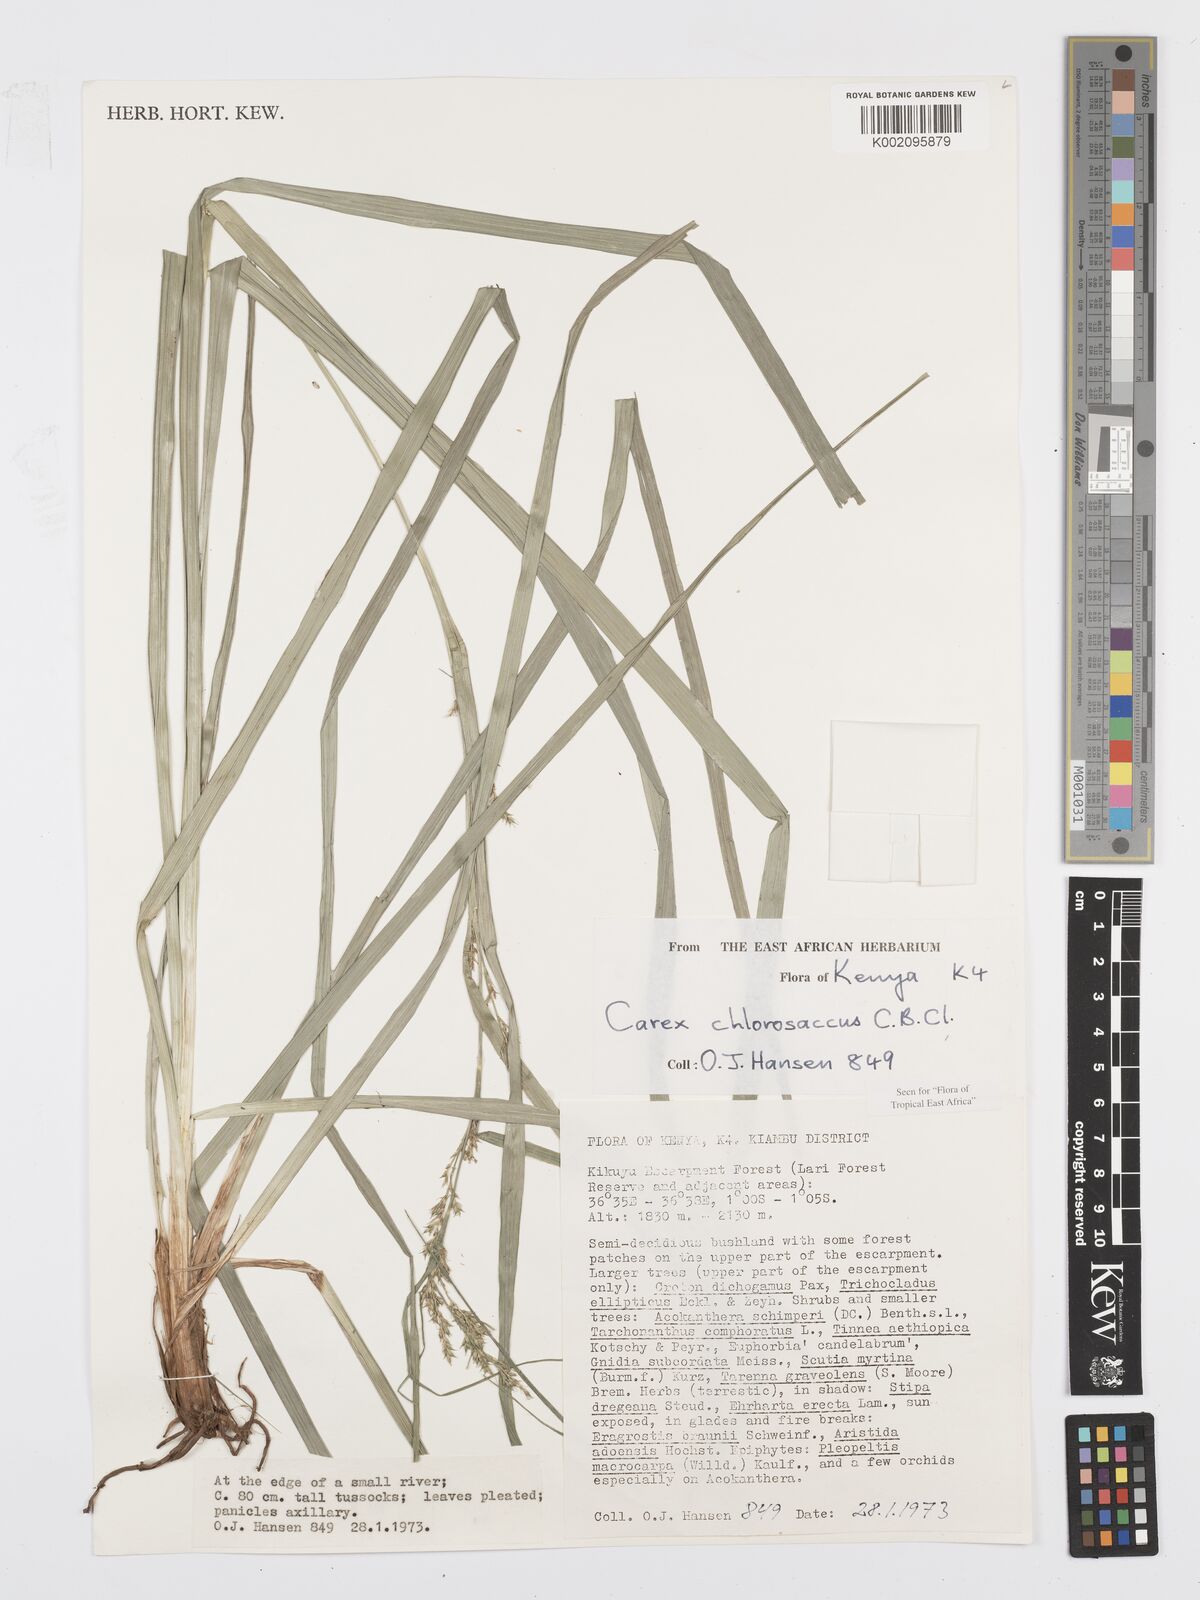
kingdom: Plantae
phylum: Tracheophyta
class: Liliopsida
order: Poales
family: Cyperaceae
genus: Carex
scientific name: Carex chlorosaccus
